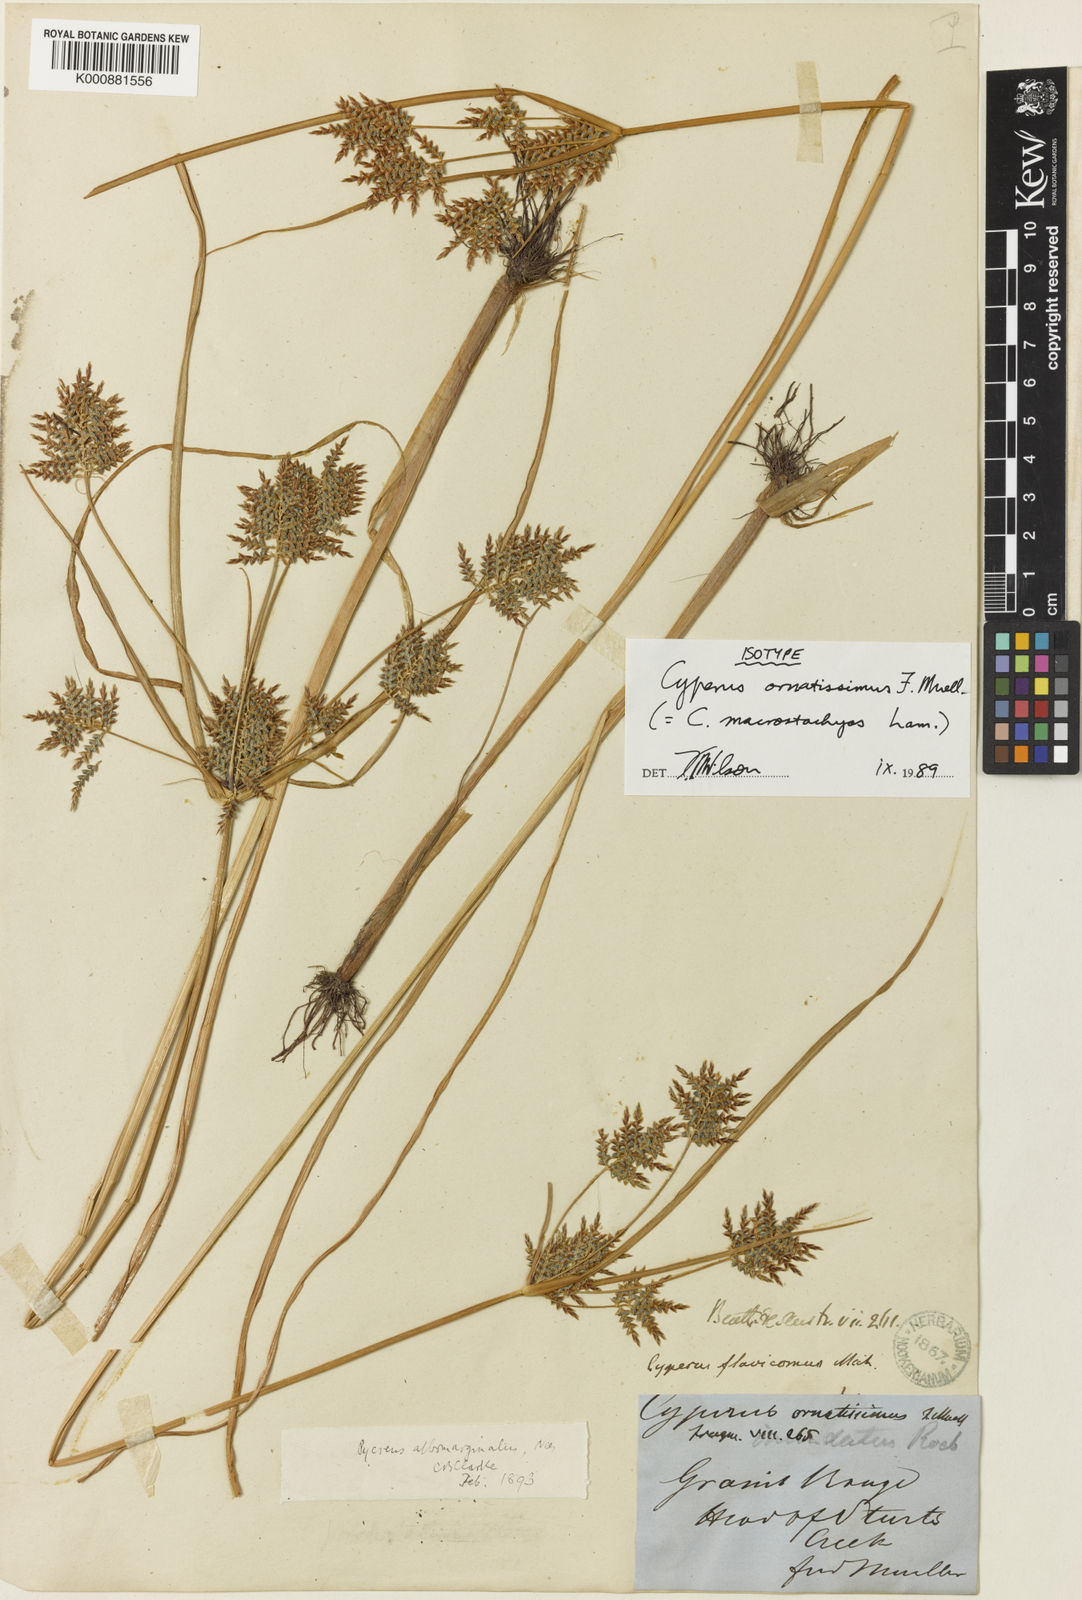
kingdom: Plantae
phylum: Tracheophyta
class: Liliopsida
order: Poales
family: Cyperaceae
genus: Cyperus
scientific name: Cyperus macrostachyos
